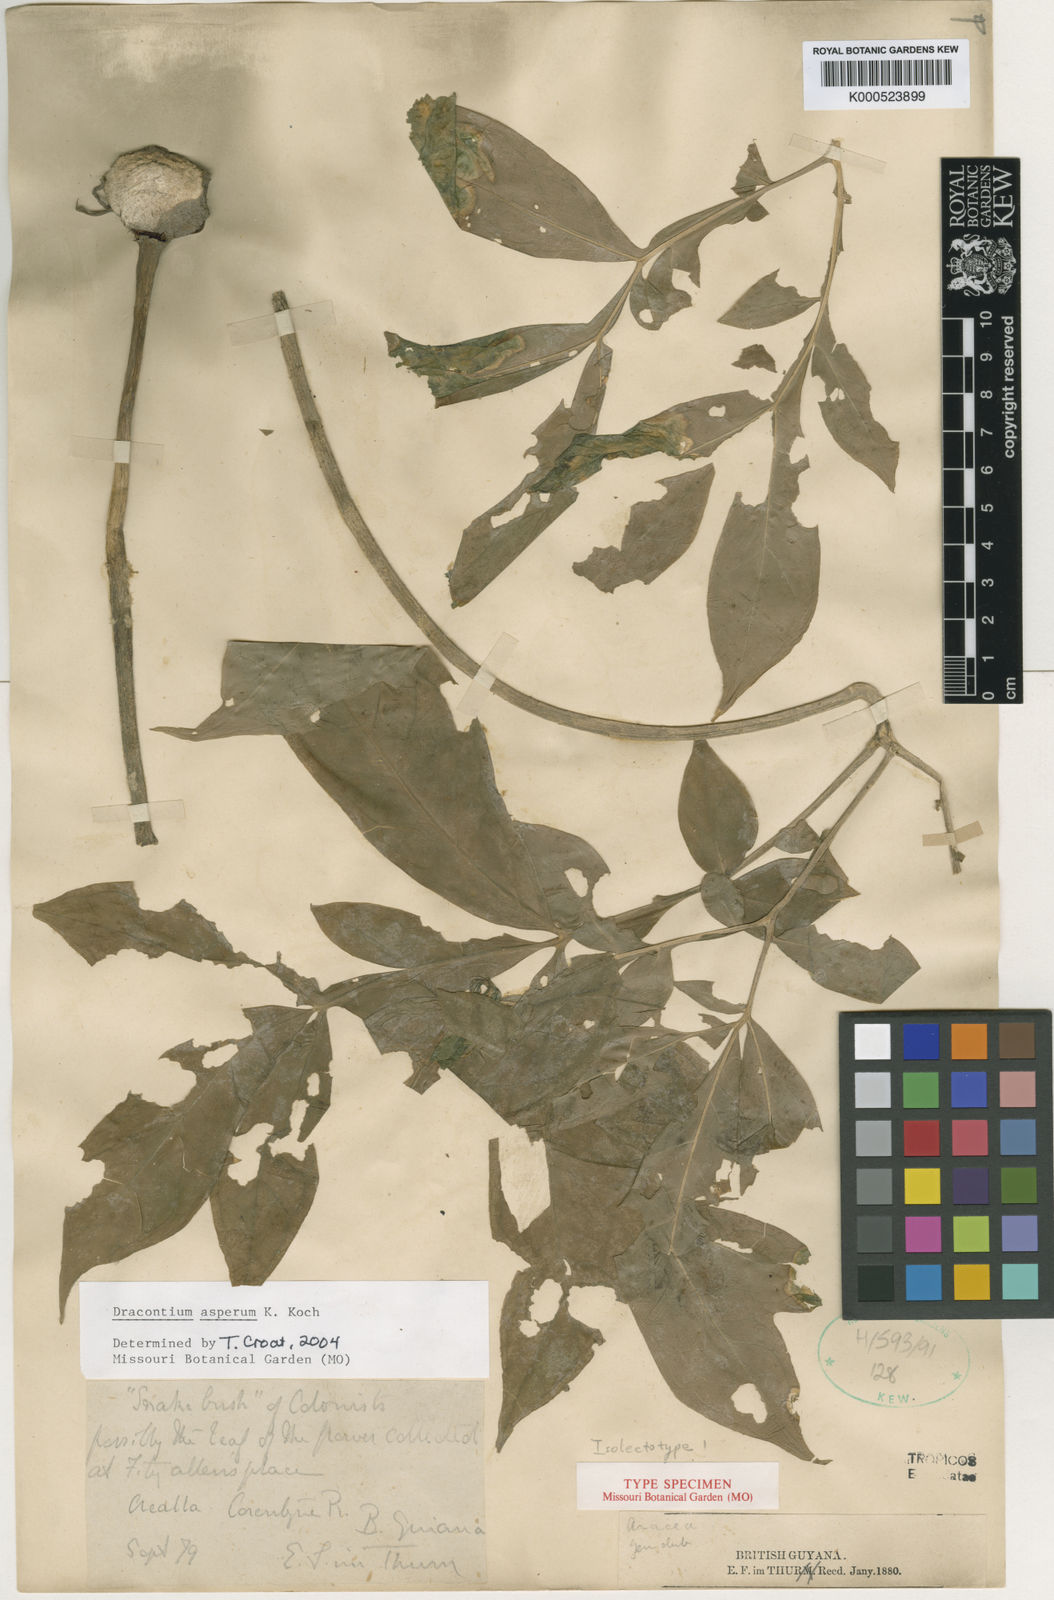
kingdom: Plantae
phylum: Tracheophyta
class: Liliopsida
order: Alismatales
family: Araceae
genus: Dracontium
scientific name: Dracontium asperum
